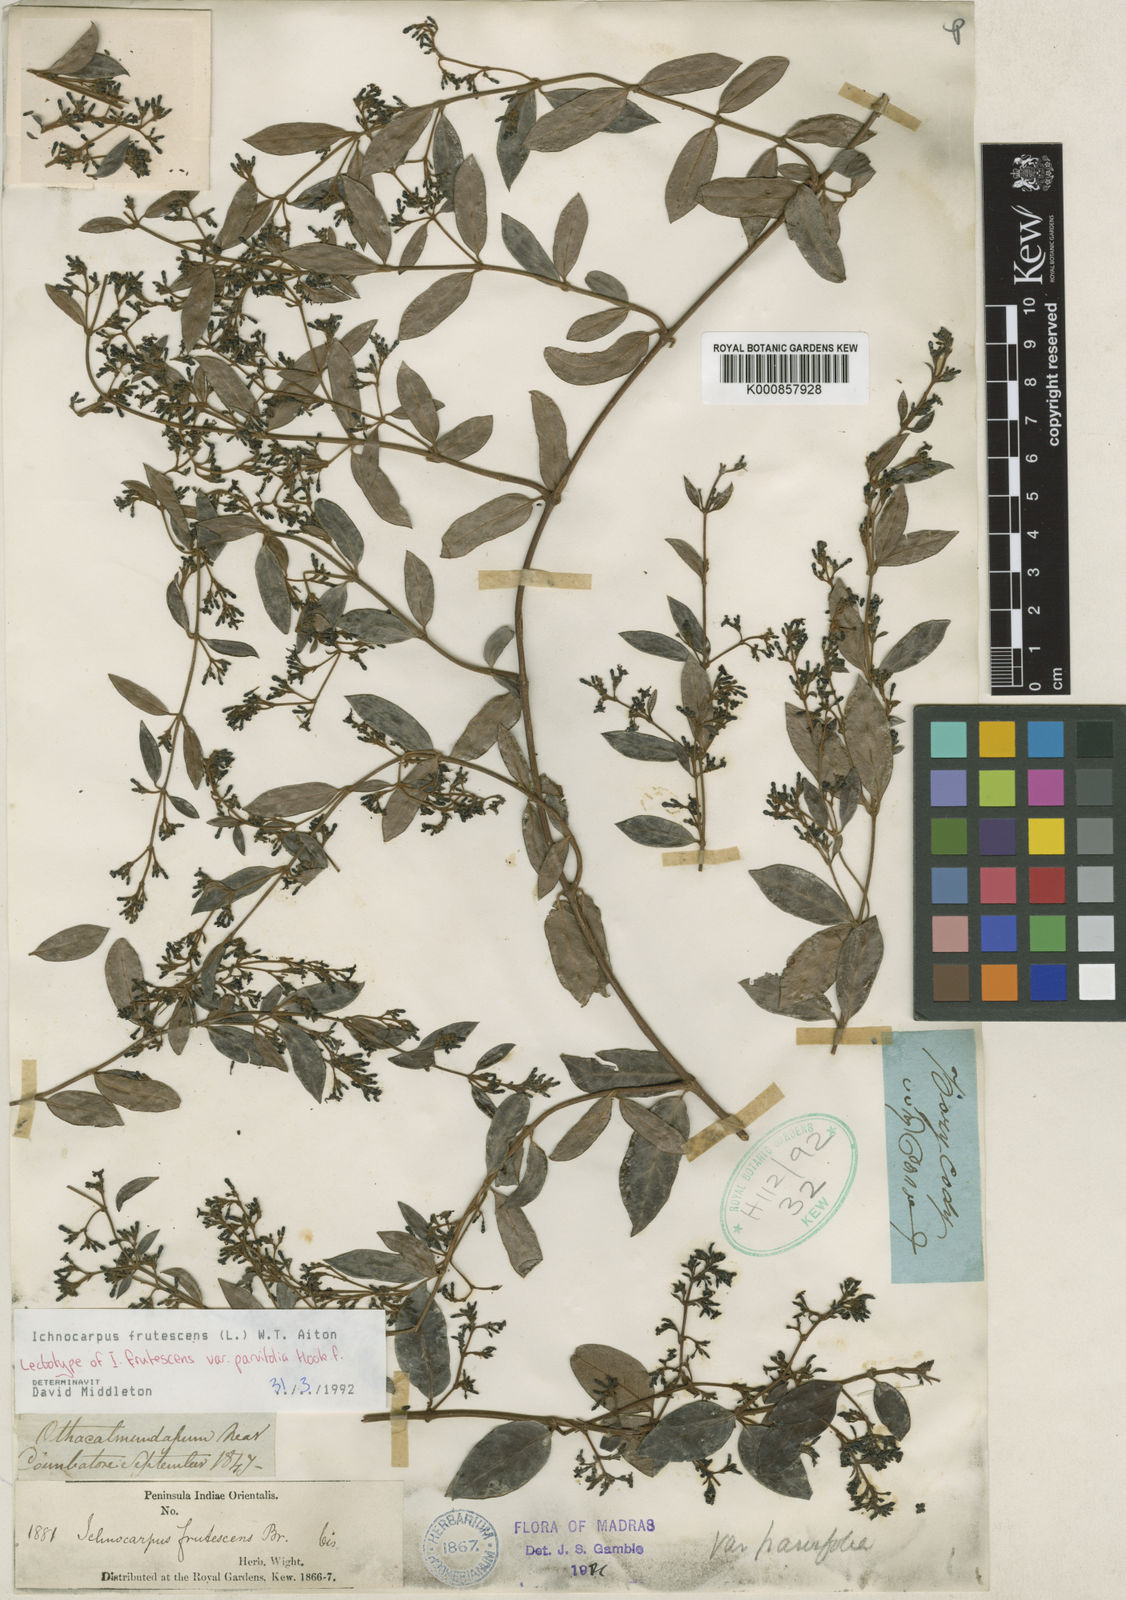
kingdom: Plantae
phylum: Tracheophyta
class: Magnoliopsida
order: Gentianales
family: Apocynaceae
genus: Ichnocarpus
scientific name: Ichnocarpus frutescens
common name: Ichnocarpus
